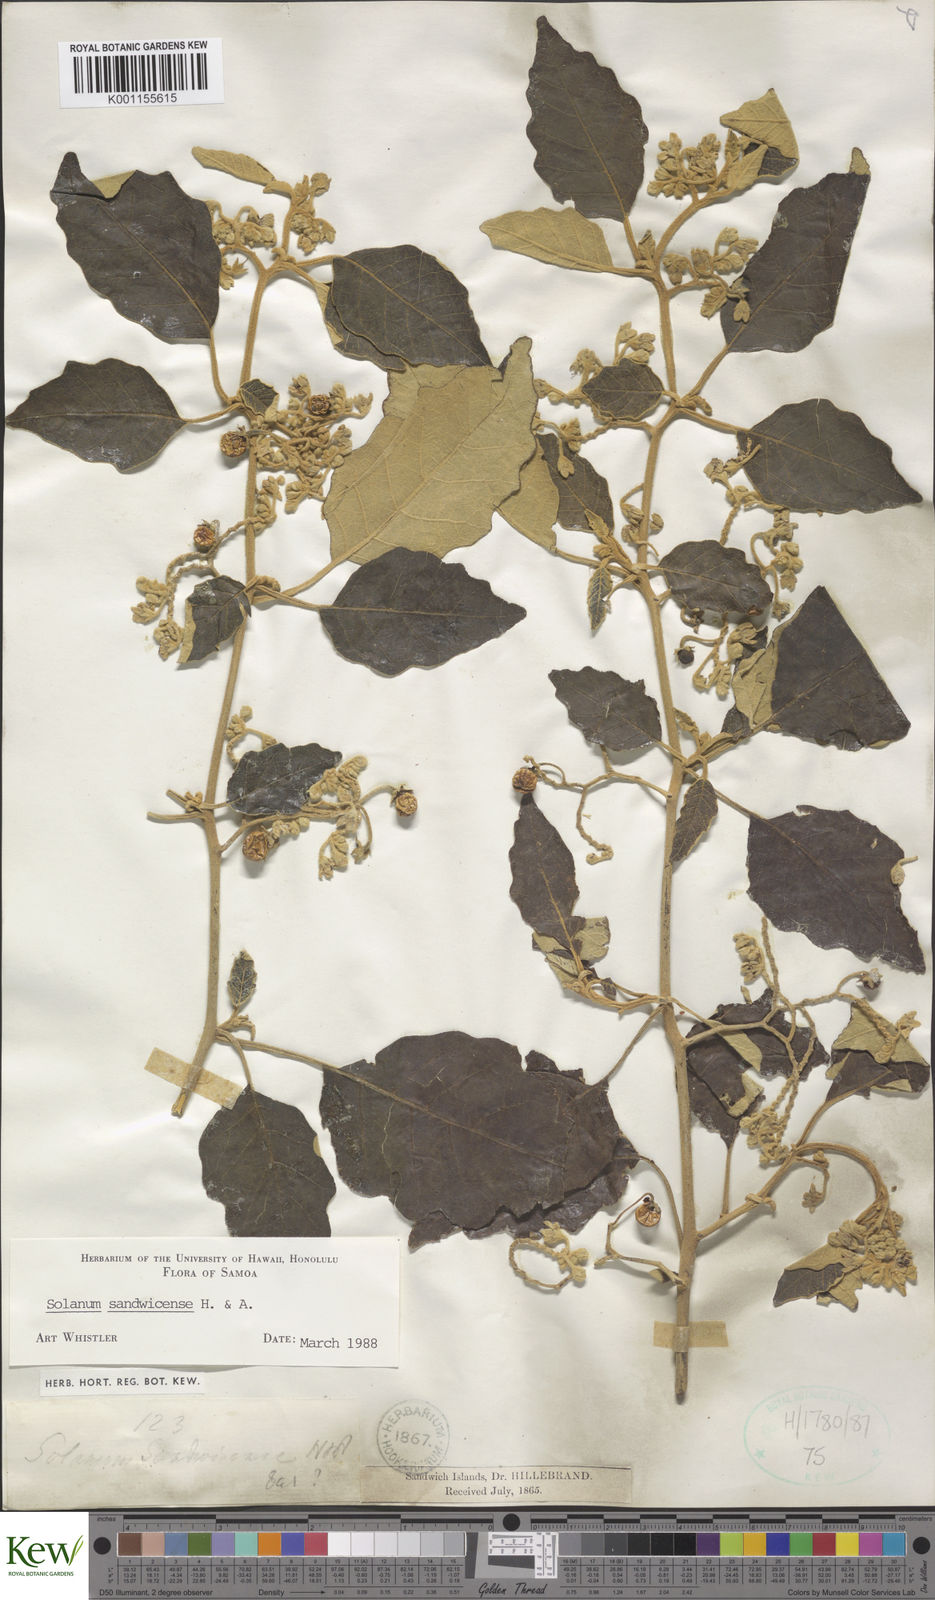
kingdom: Plantae
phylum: Tracheophyta
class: Magnoliopsida
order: Solanales
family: Solanaceae
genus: Solanum
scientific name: Solanum sandwicense
